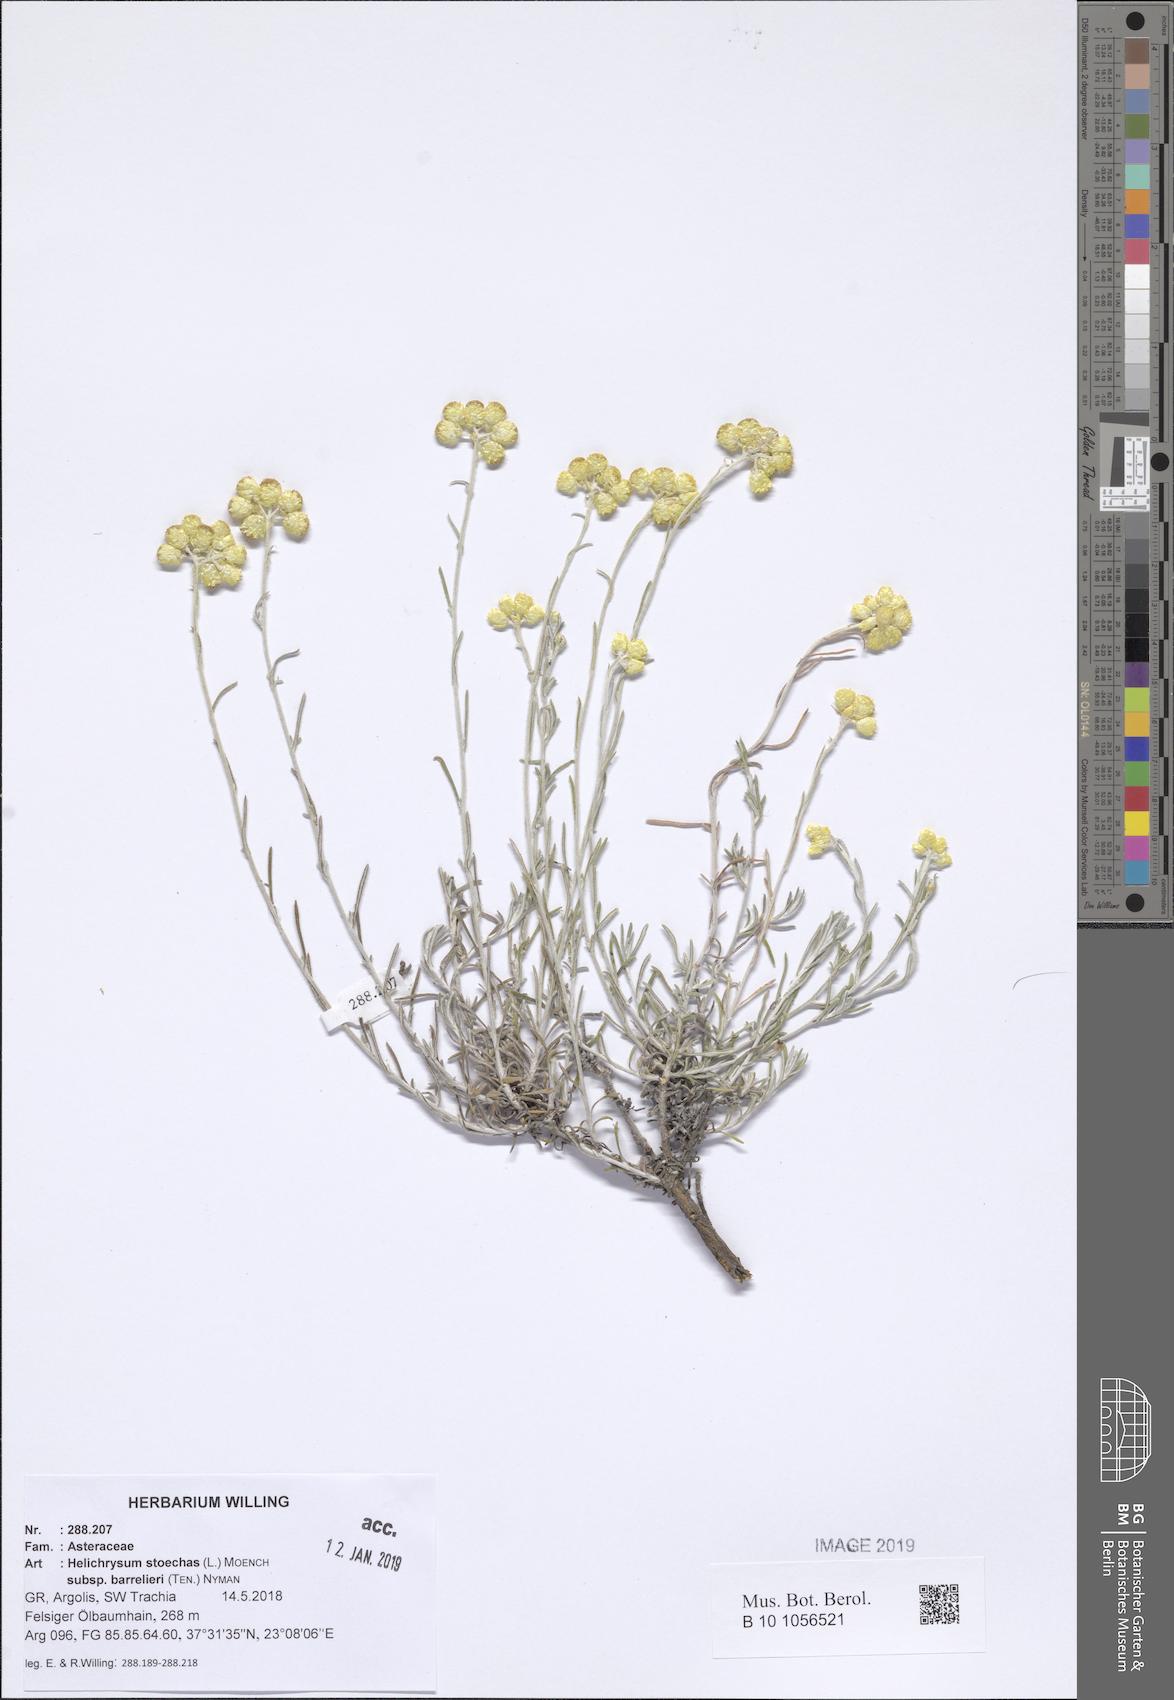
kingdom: Plantae
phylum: Tracheophyta
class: Magnoliopsida
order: Asterales
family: Asteraceae
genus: Helichrysum
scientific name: Helichrysum stoechas
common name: Goldilocks
